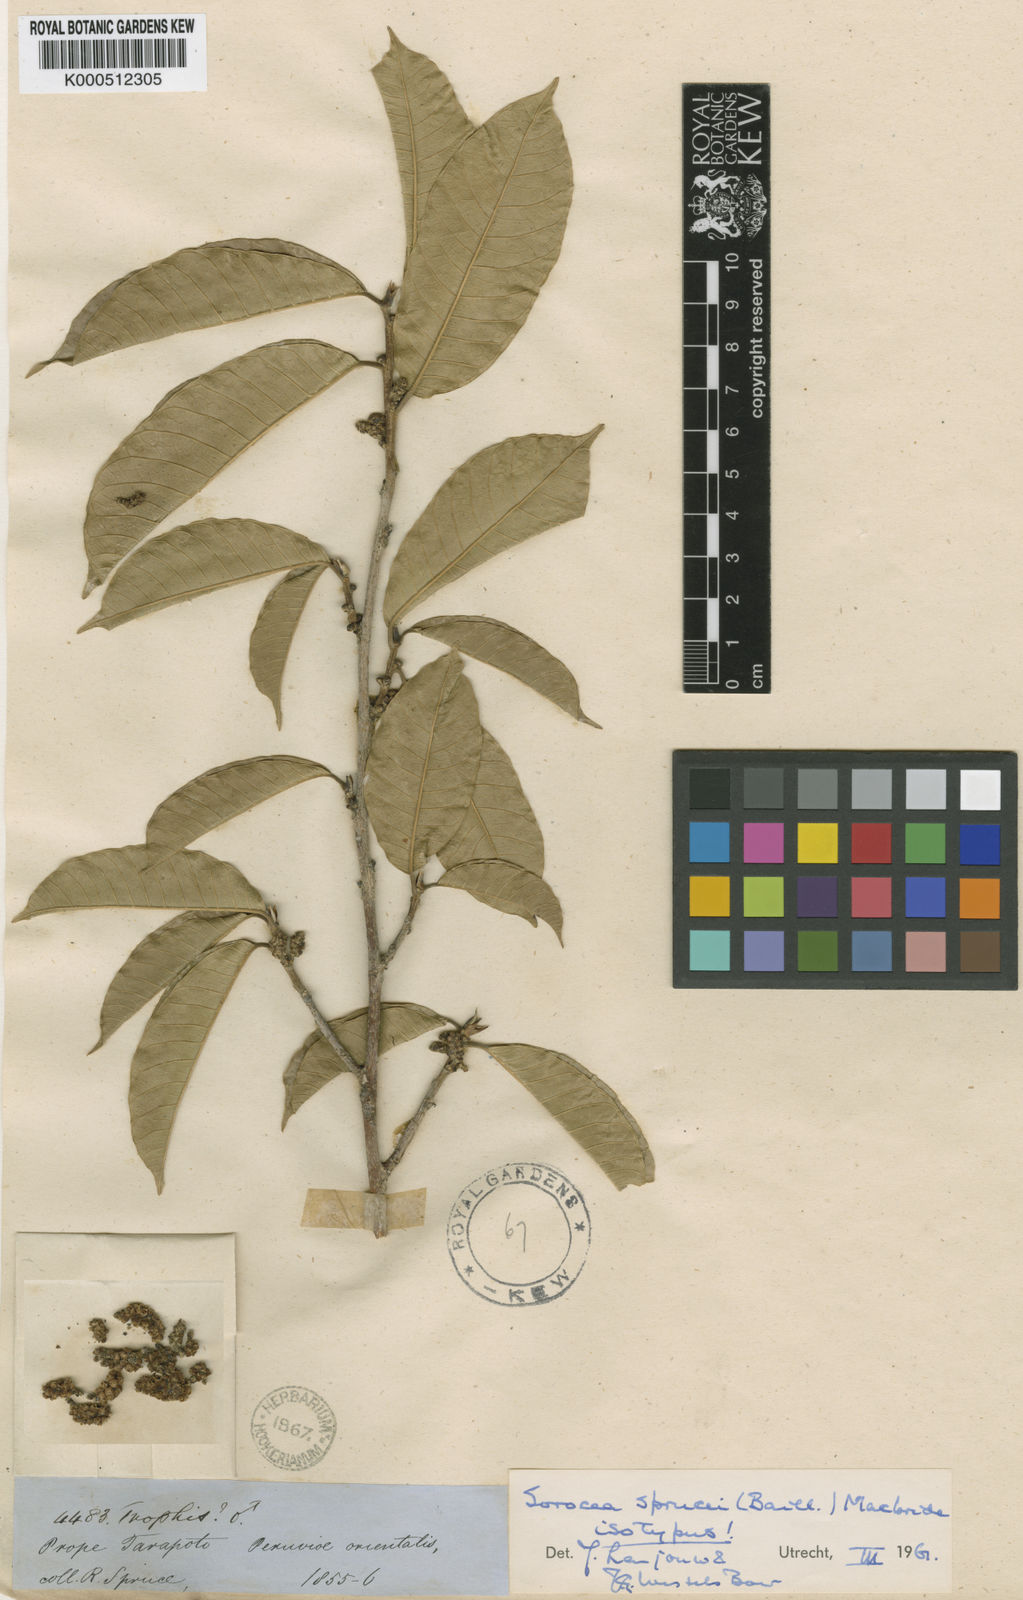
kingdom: Plantae
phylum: Tracheophyta
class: Magnoliopsida
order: Rosales
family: Moraceae
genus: Sorocea
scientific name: Sorocea sprucei
